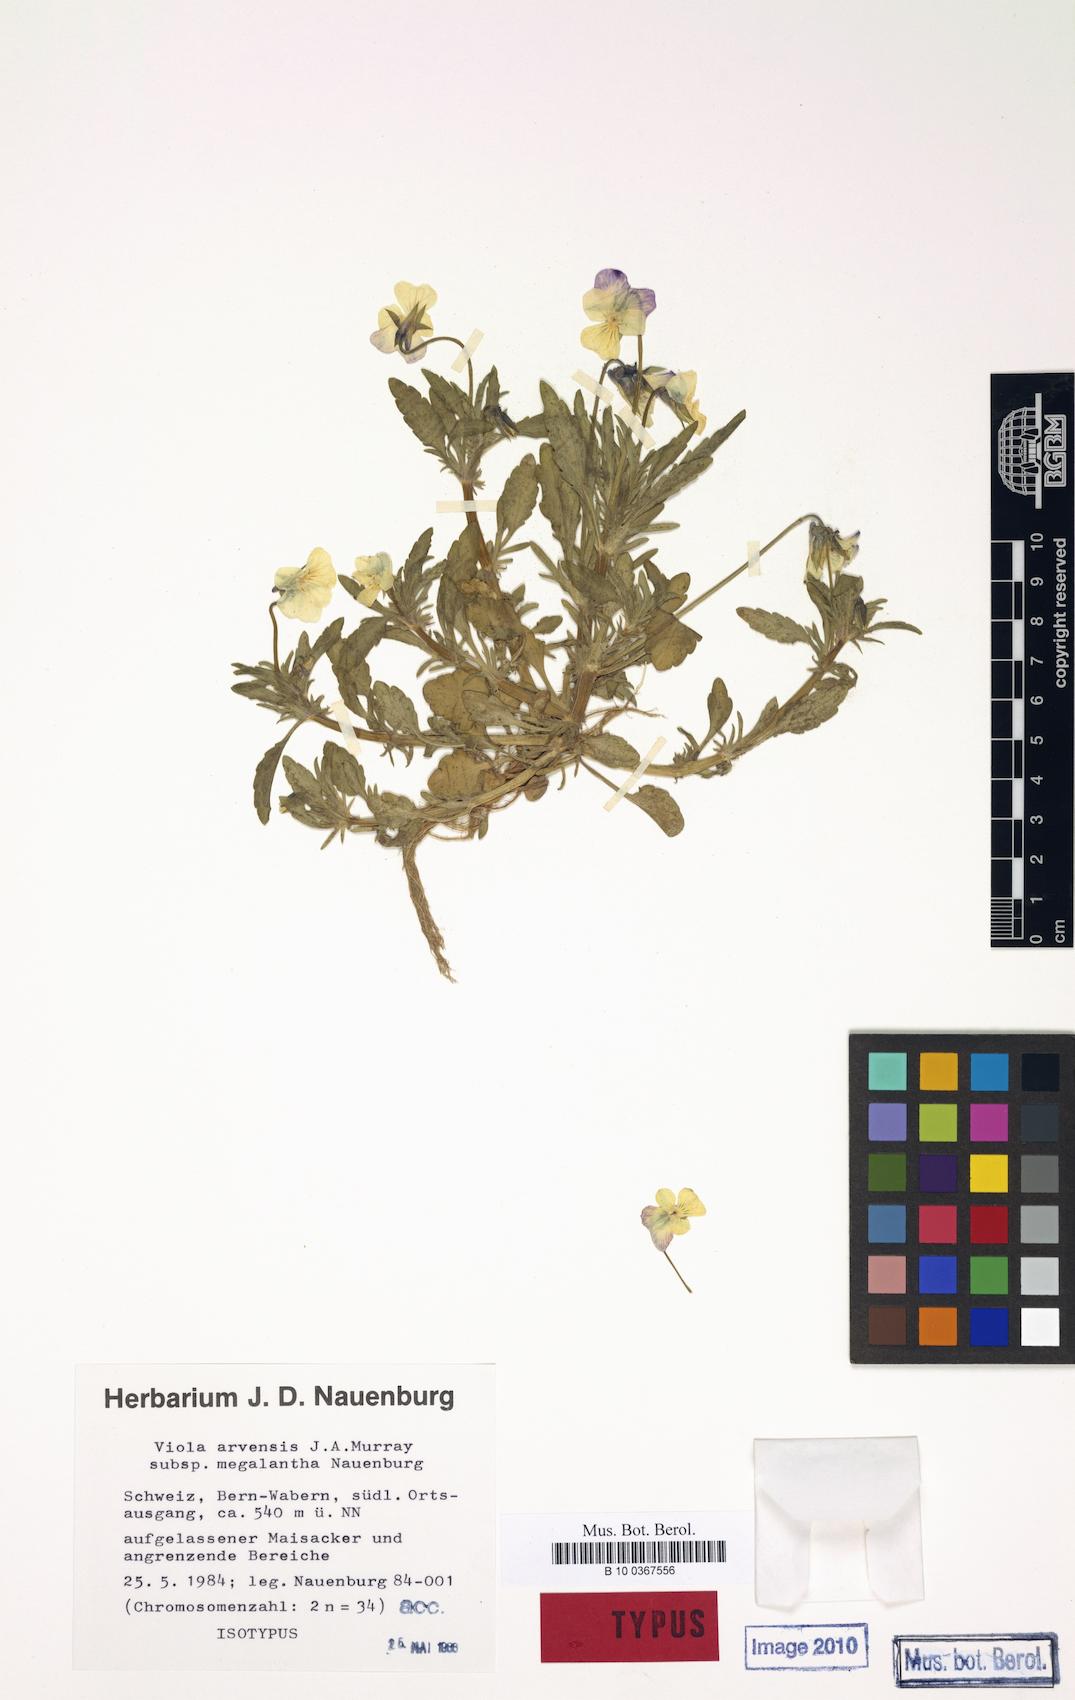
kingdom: Plantae
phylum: Tracheophyta
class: Magnoliopsida
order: Malpighiales
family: Violaceae
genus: Viola
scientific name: Viola arvensis
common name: Field pansy
